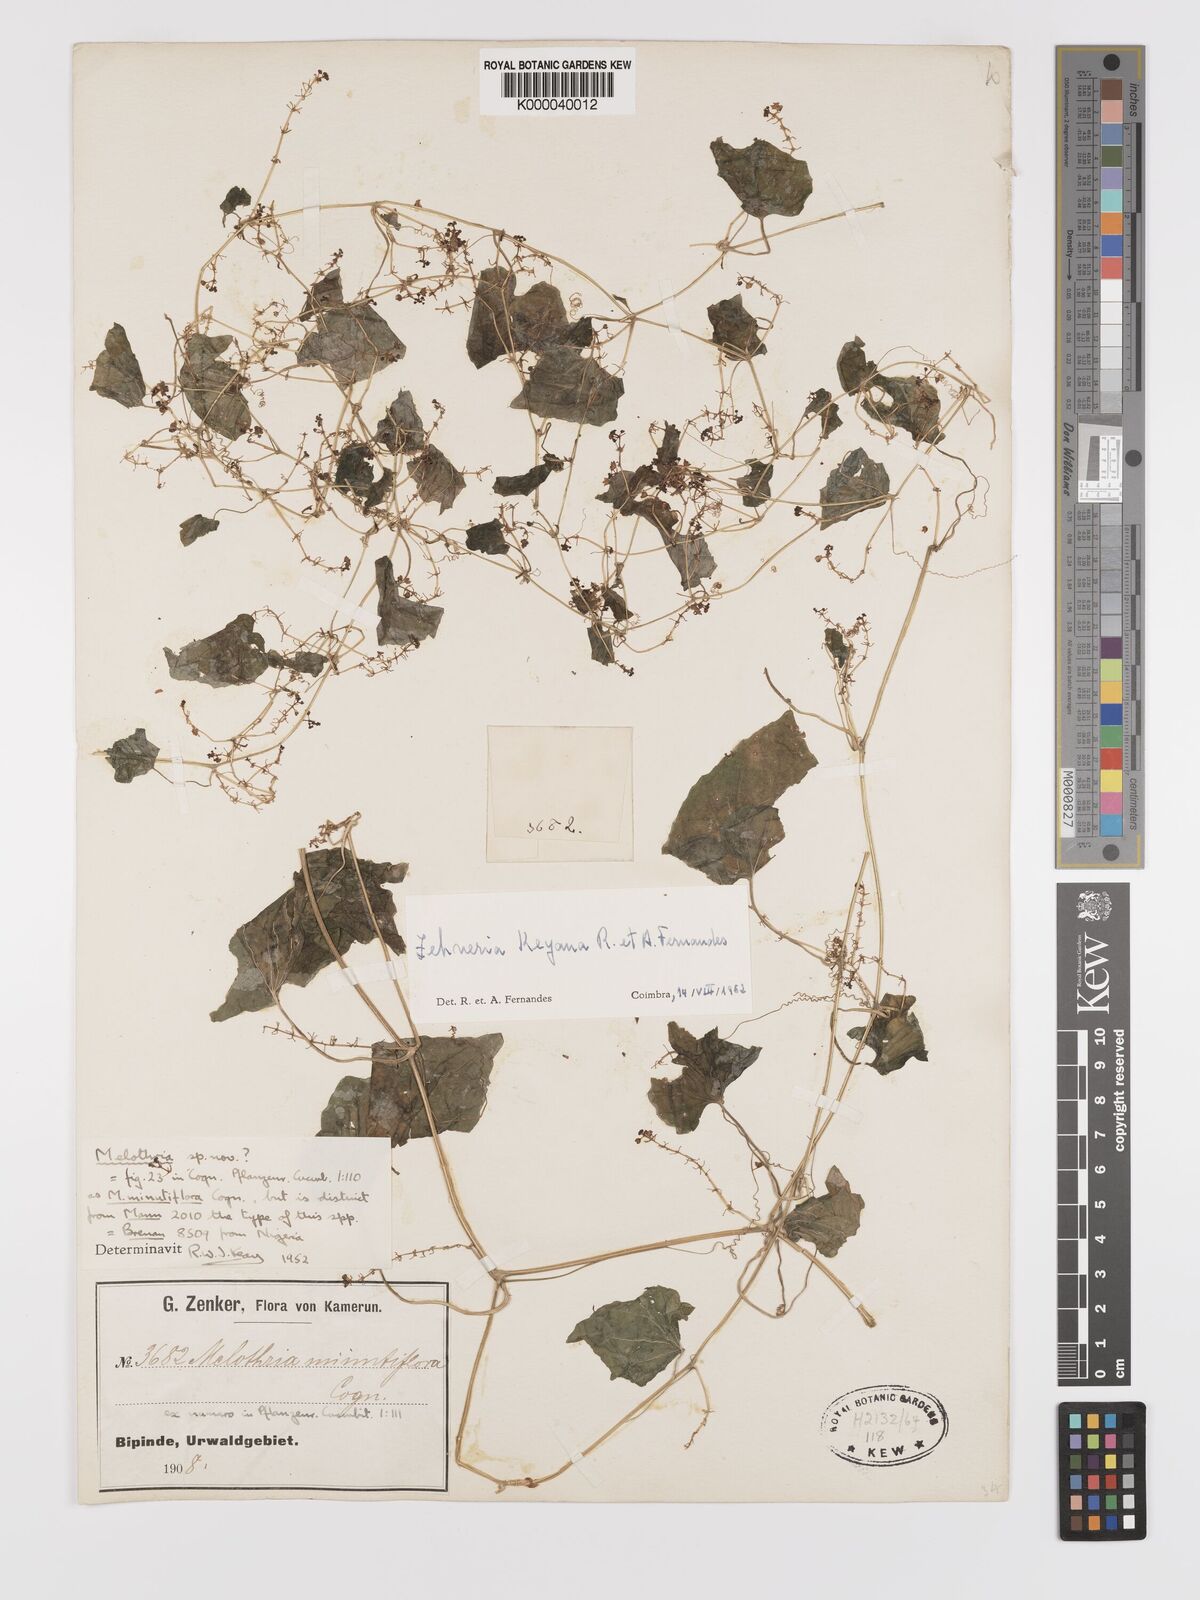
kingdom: Plantae
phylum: Tracheophyta
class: Magnoliopsida
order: Cucurbitales
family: Cucurbitaceae
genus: Zehneria
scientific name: Zehneria keayana
